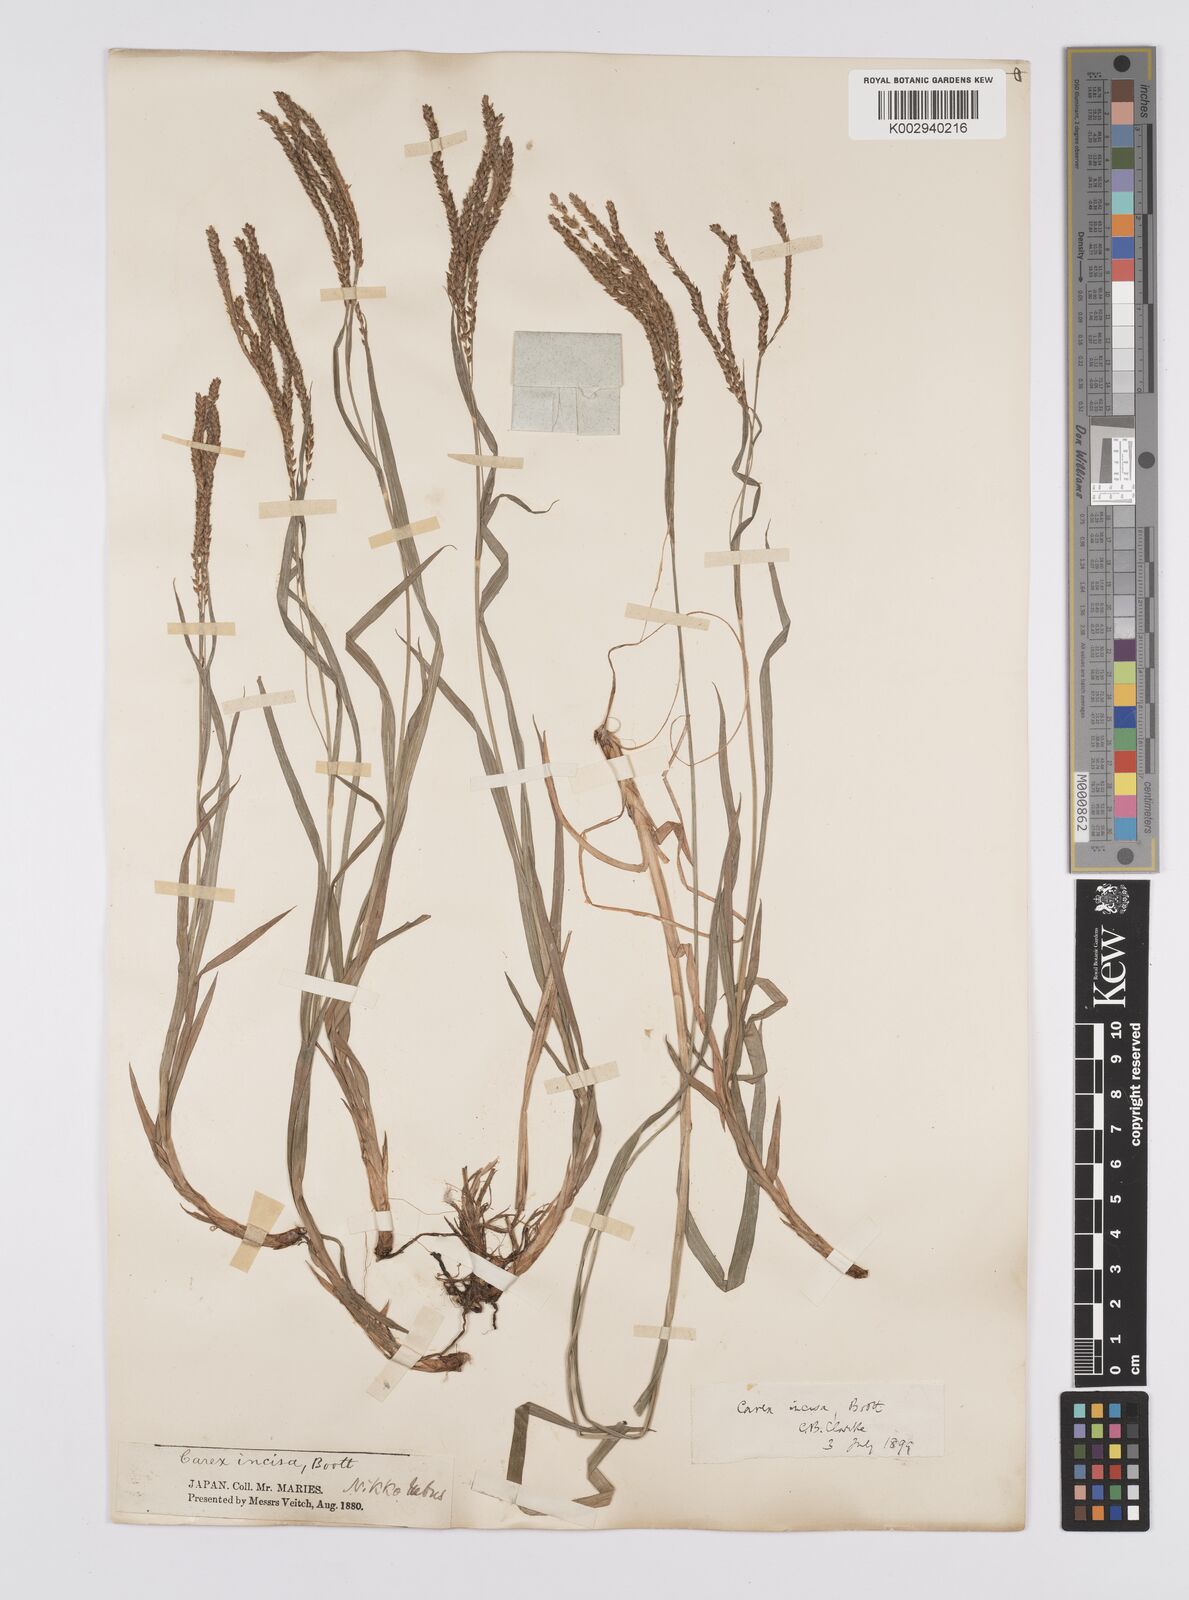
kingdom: Plantae
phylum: Tracheophyta
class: Liliopsida
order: Poales
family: Cyperaceae
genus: Carex
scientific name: Carex incisa
